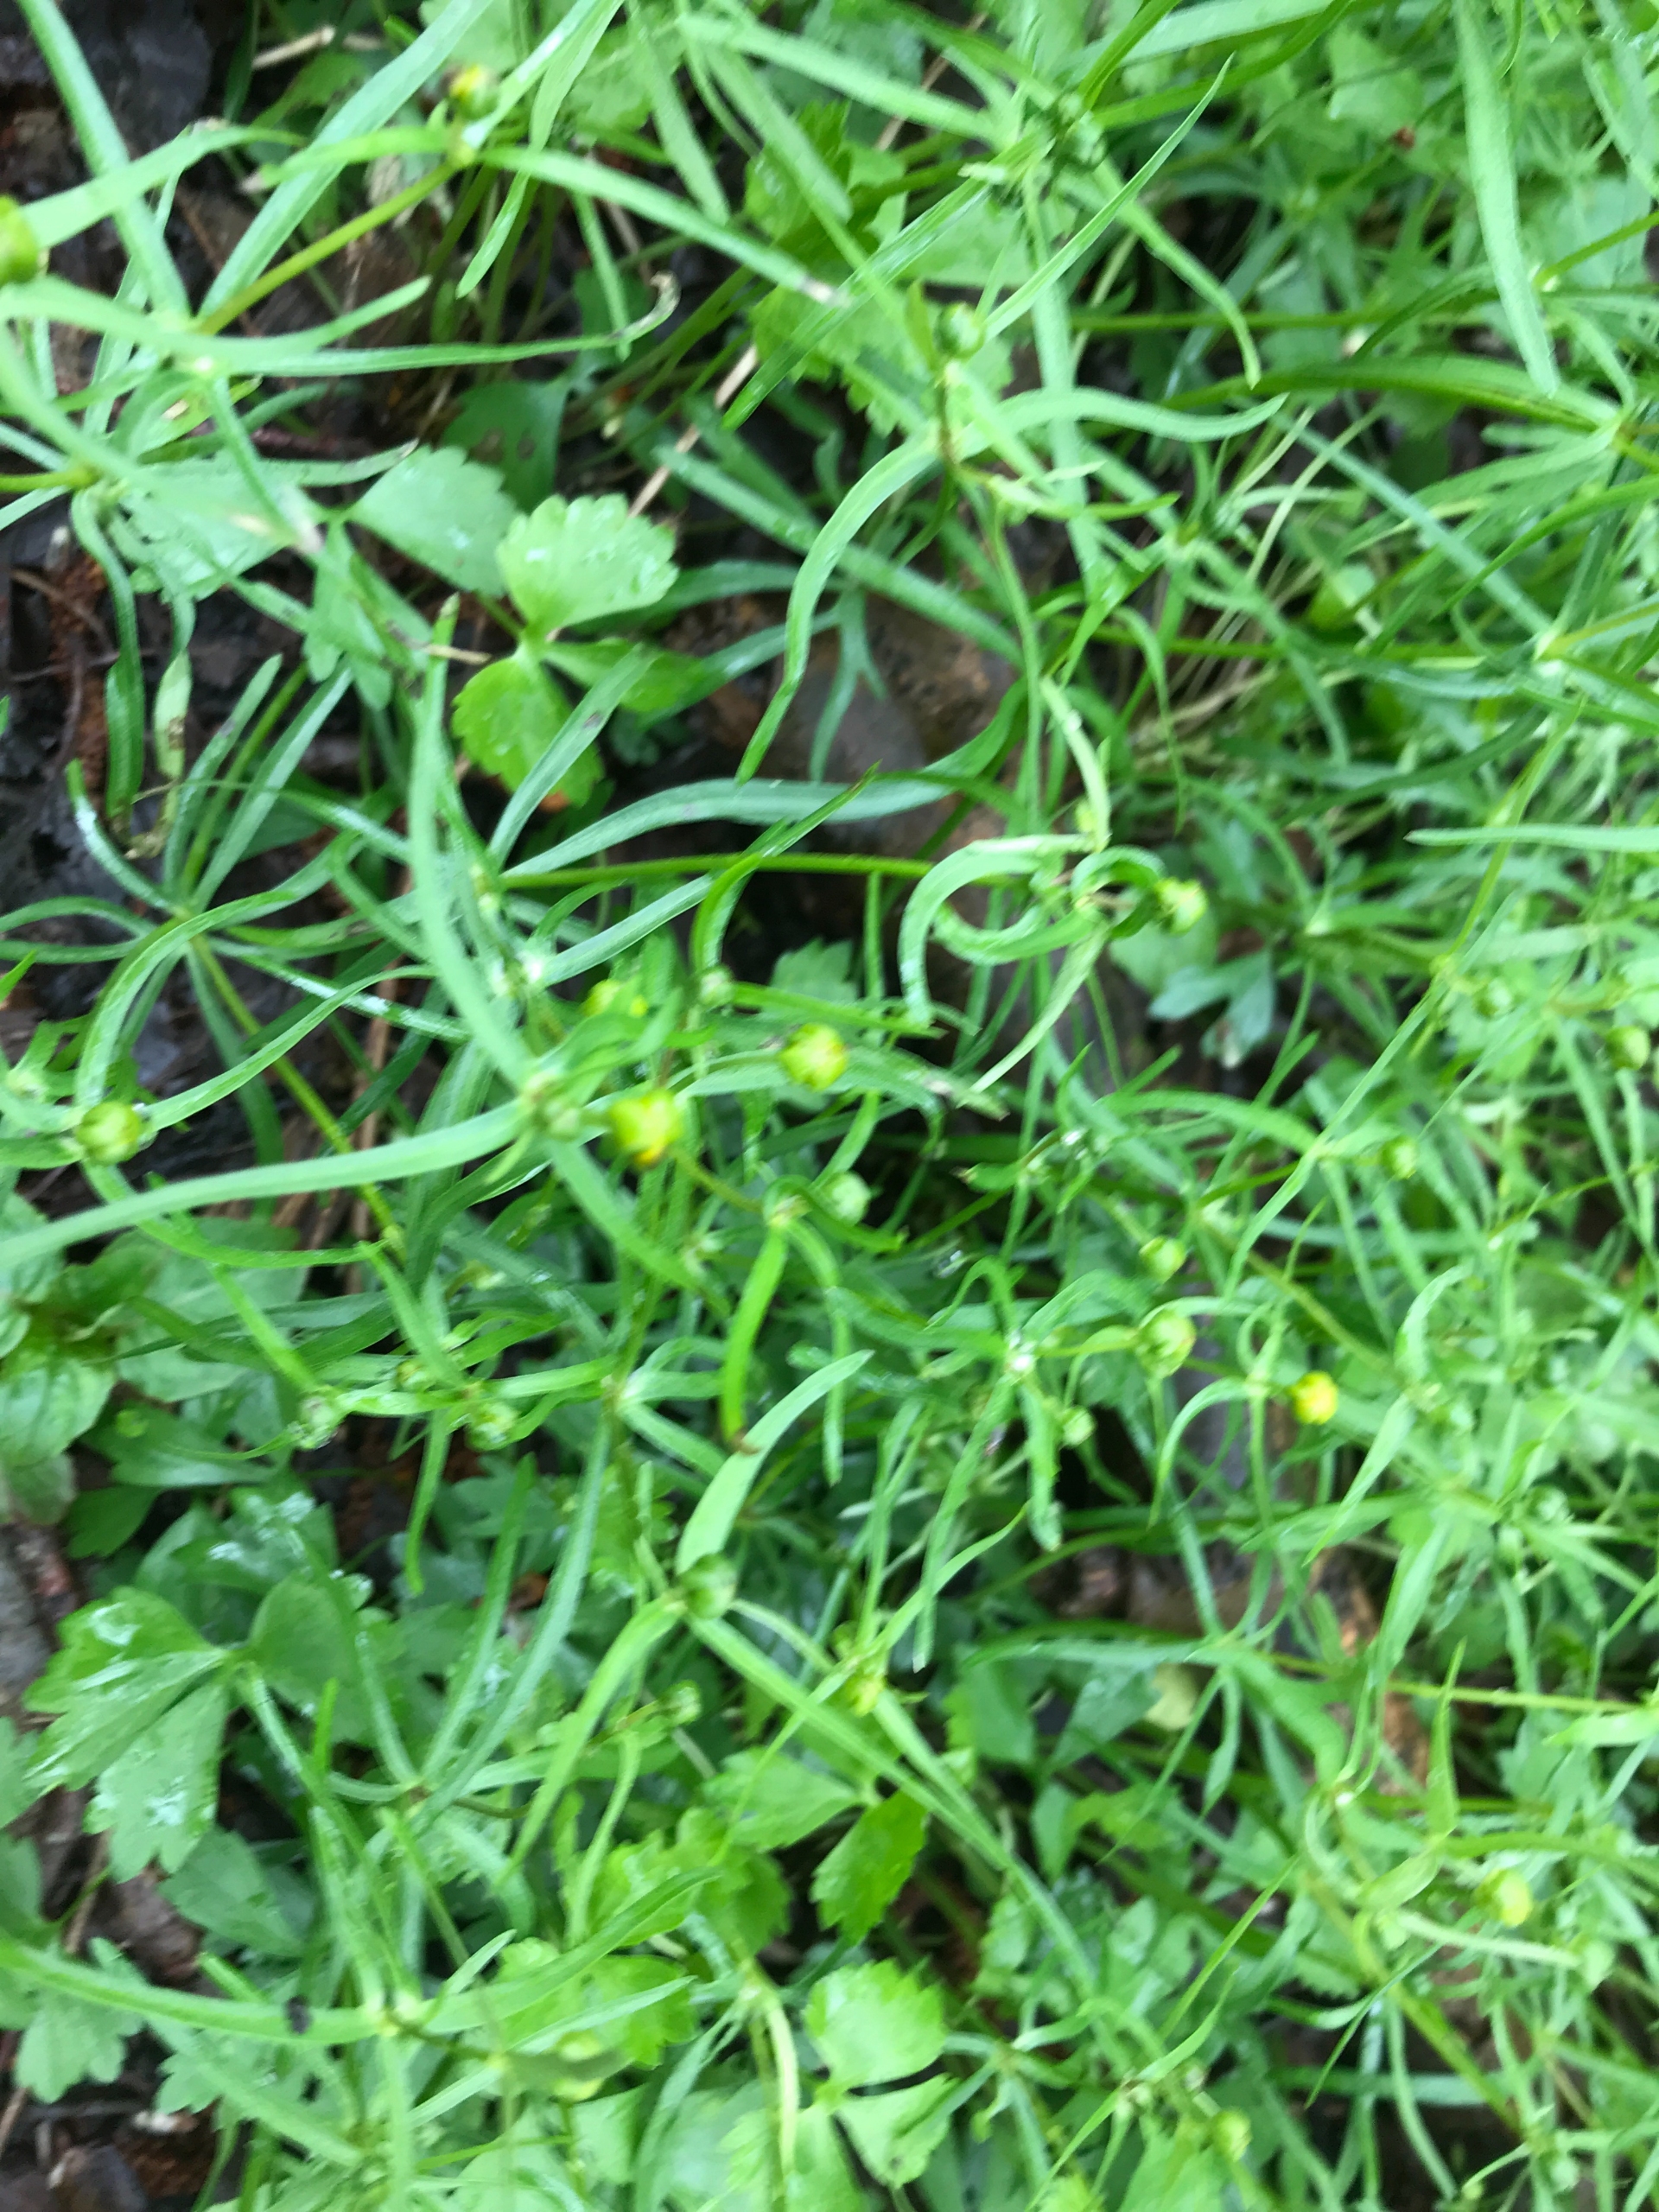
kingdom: Plantae
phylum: Tracheophyta
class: Magnoliopsida
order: Ranunculales
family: Ranunculaceae
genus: Ranunculus
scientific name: Ranunculus auricomus
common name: Nyrebladet ranunkel
